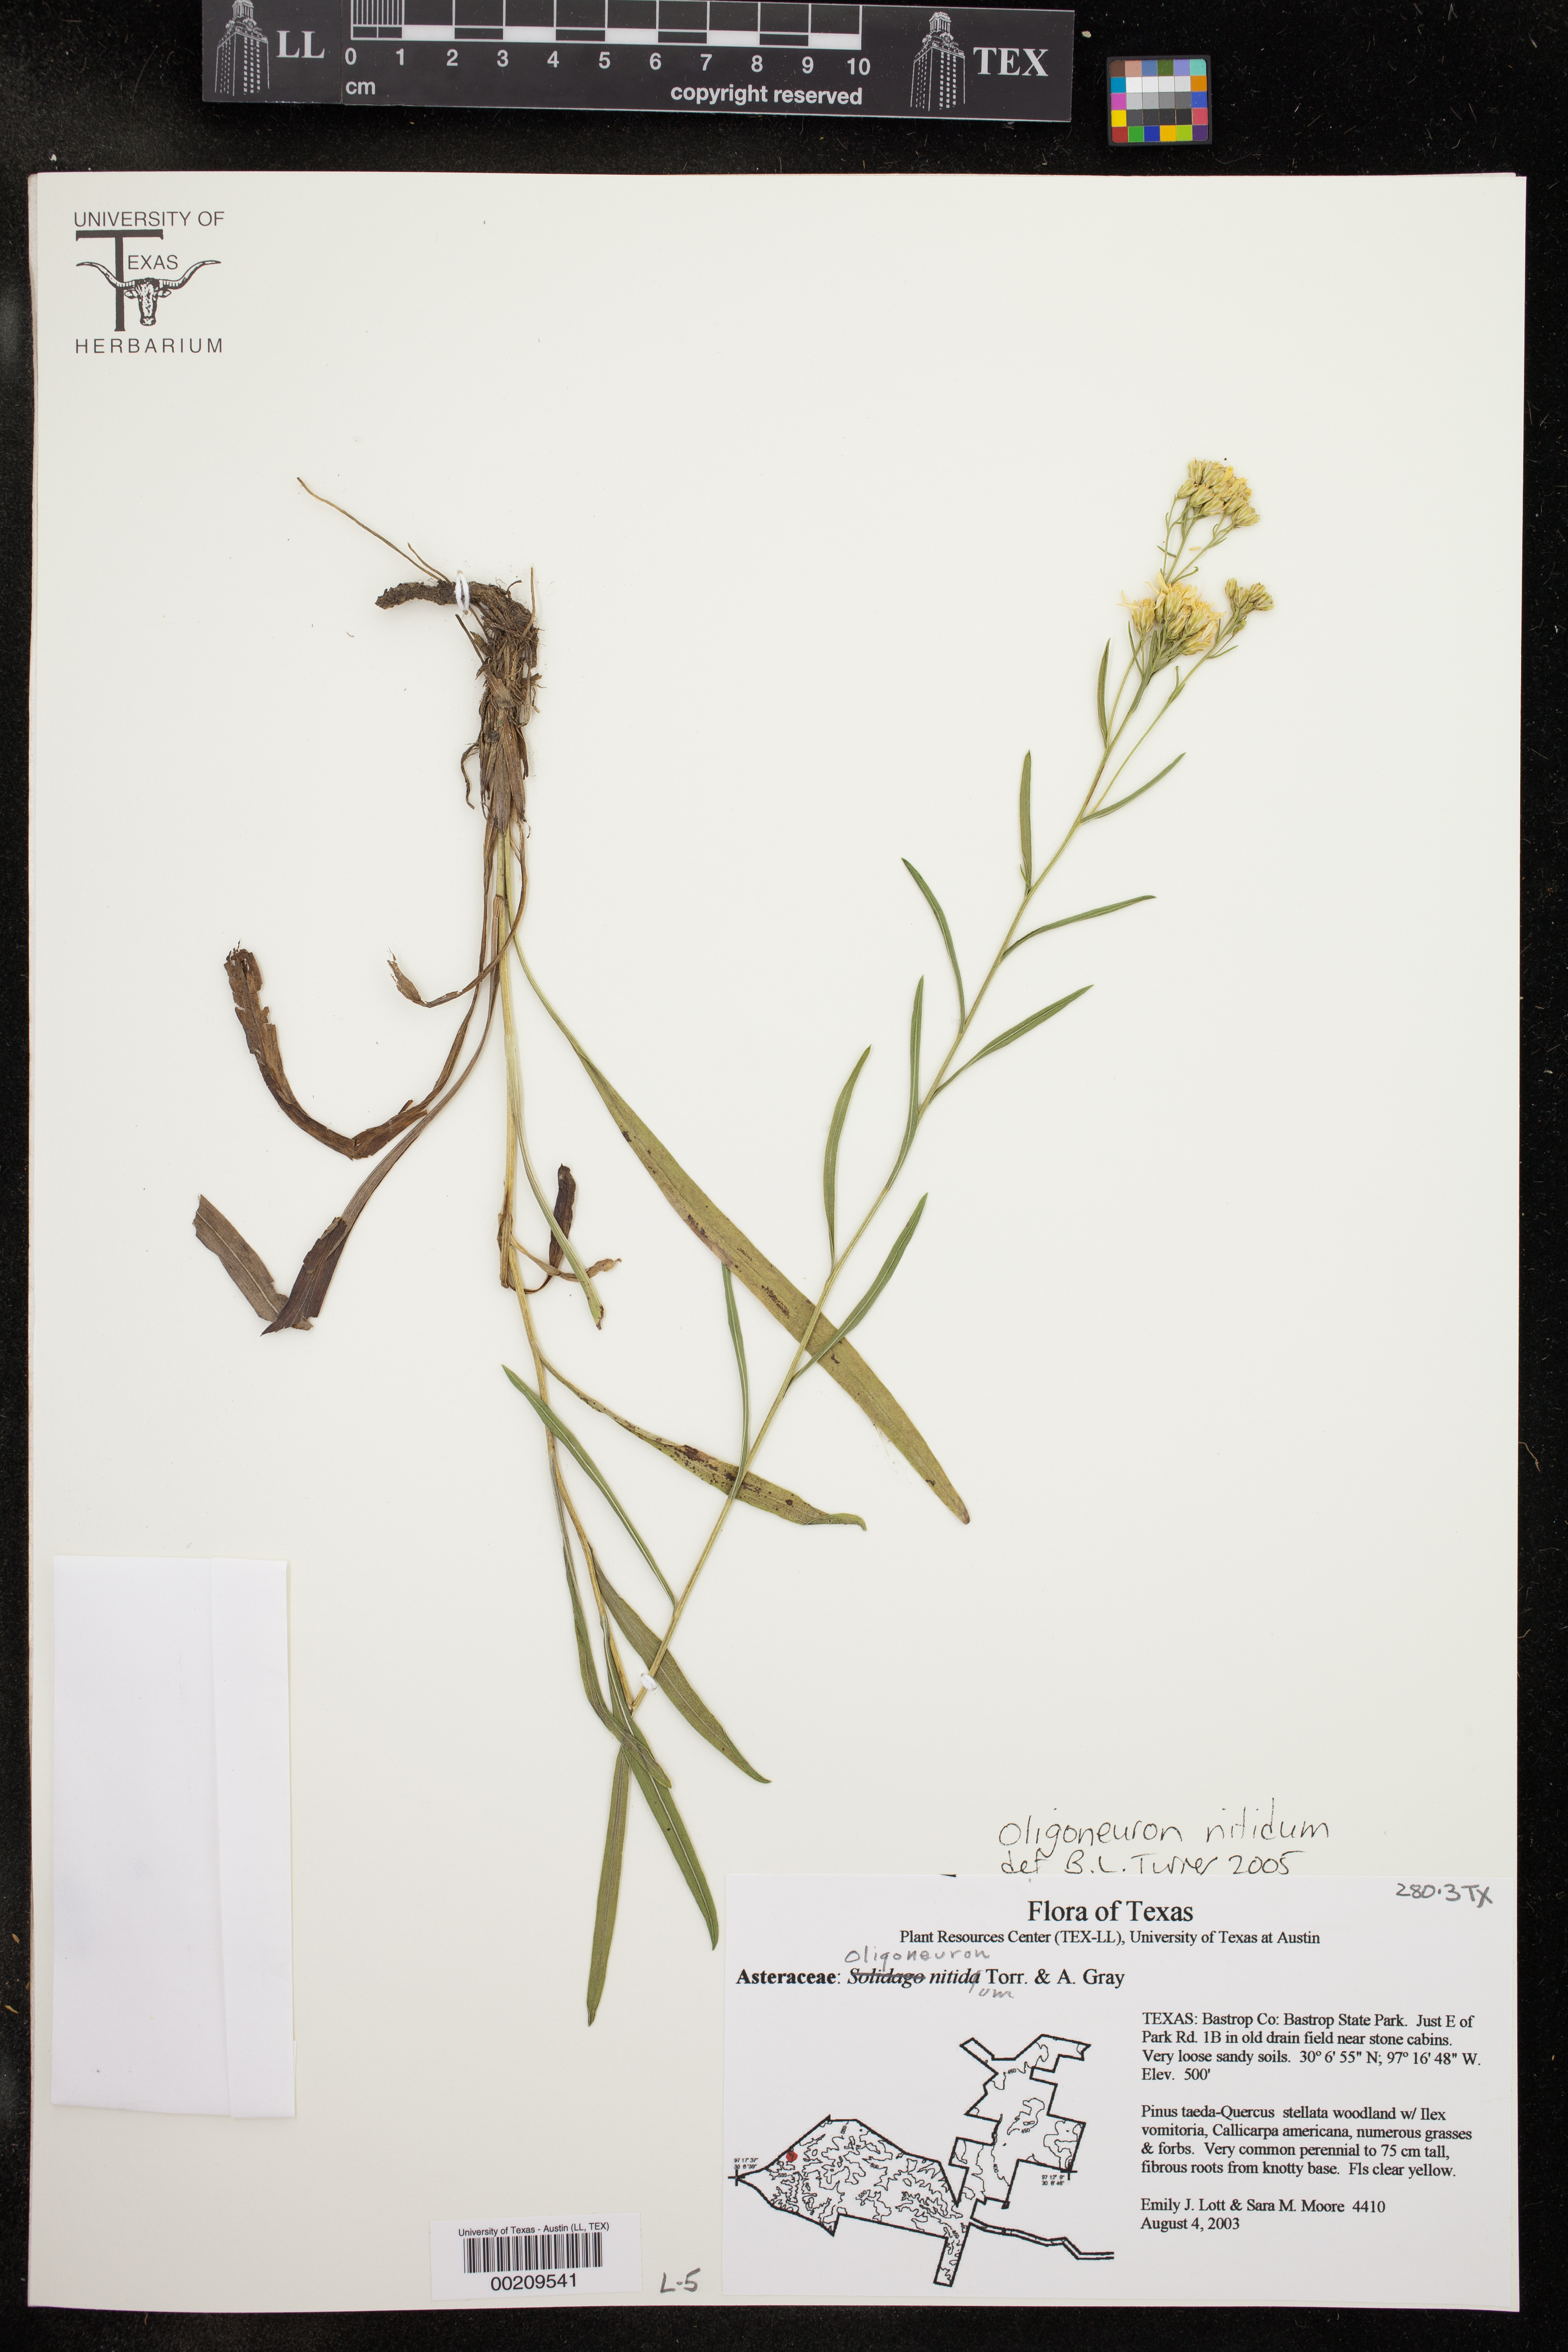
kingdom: Plantae
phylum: Tracheophyta
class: Magnoliopsida
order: Asterales
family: Asteraceae
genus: Solidago
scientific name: Solidago nitida
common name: Shiny goldenrod
